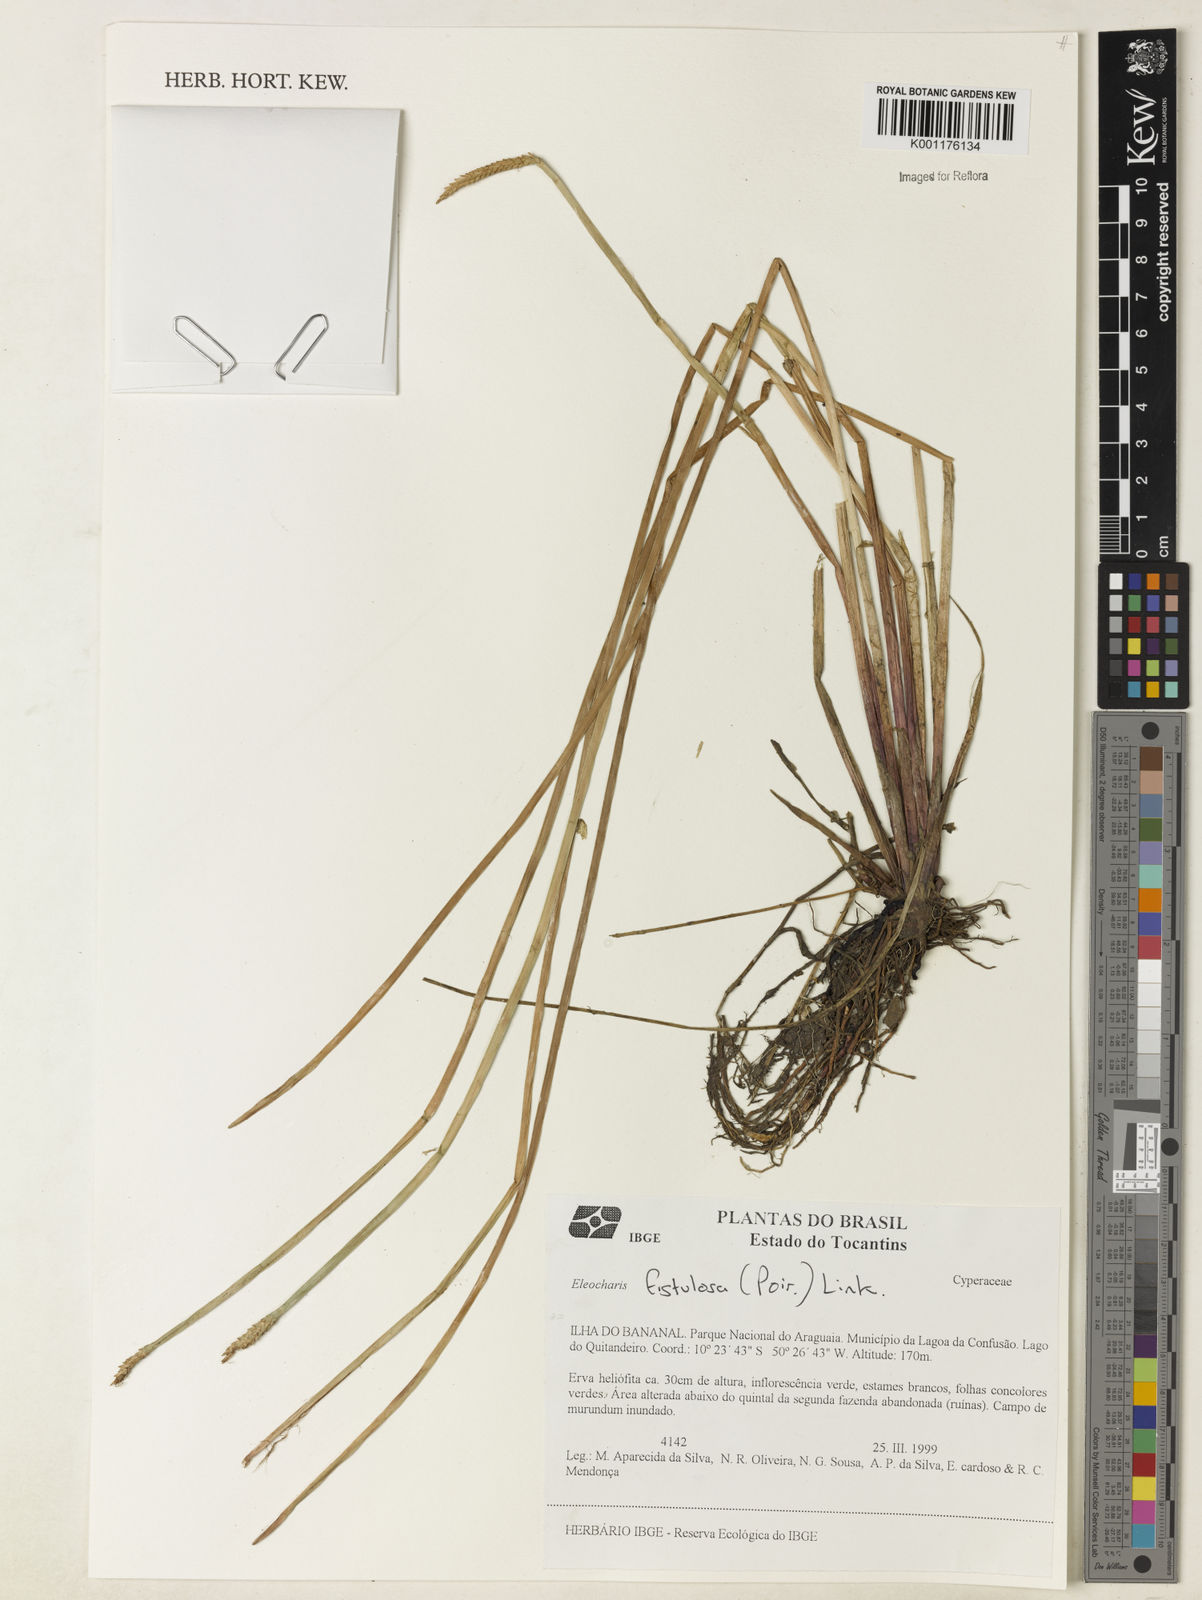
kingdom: Plantae
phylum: Tracheophyta
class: Liliopsida
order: Poales
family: Cyperaceae
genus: Eleocharis
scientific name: Eleocharis acutangula
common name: Acute spikerush
